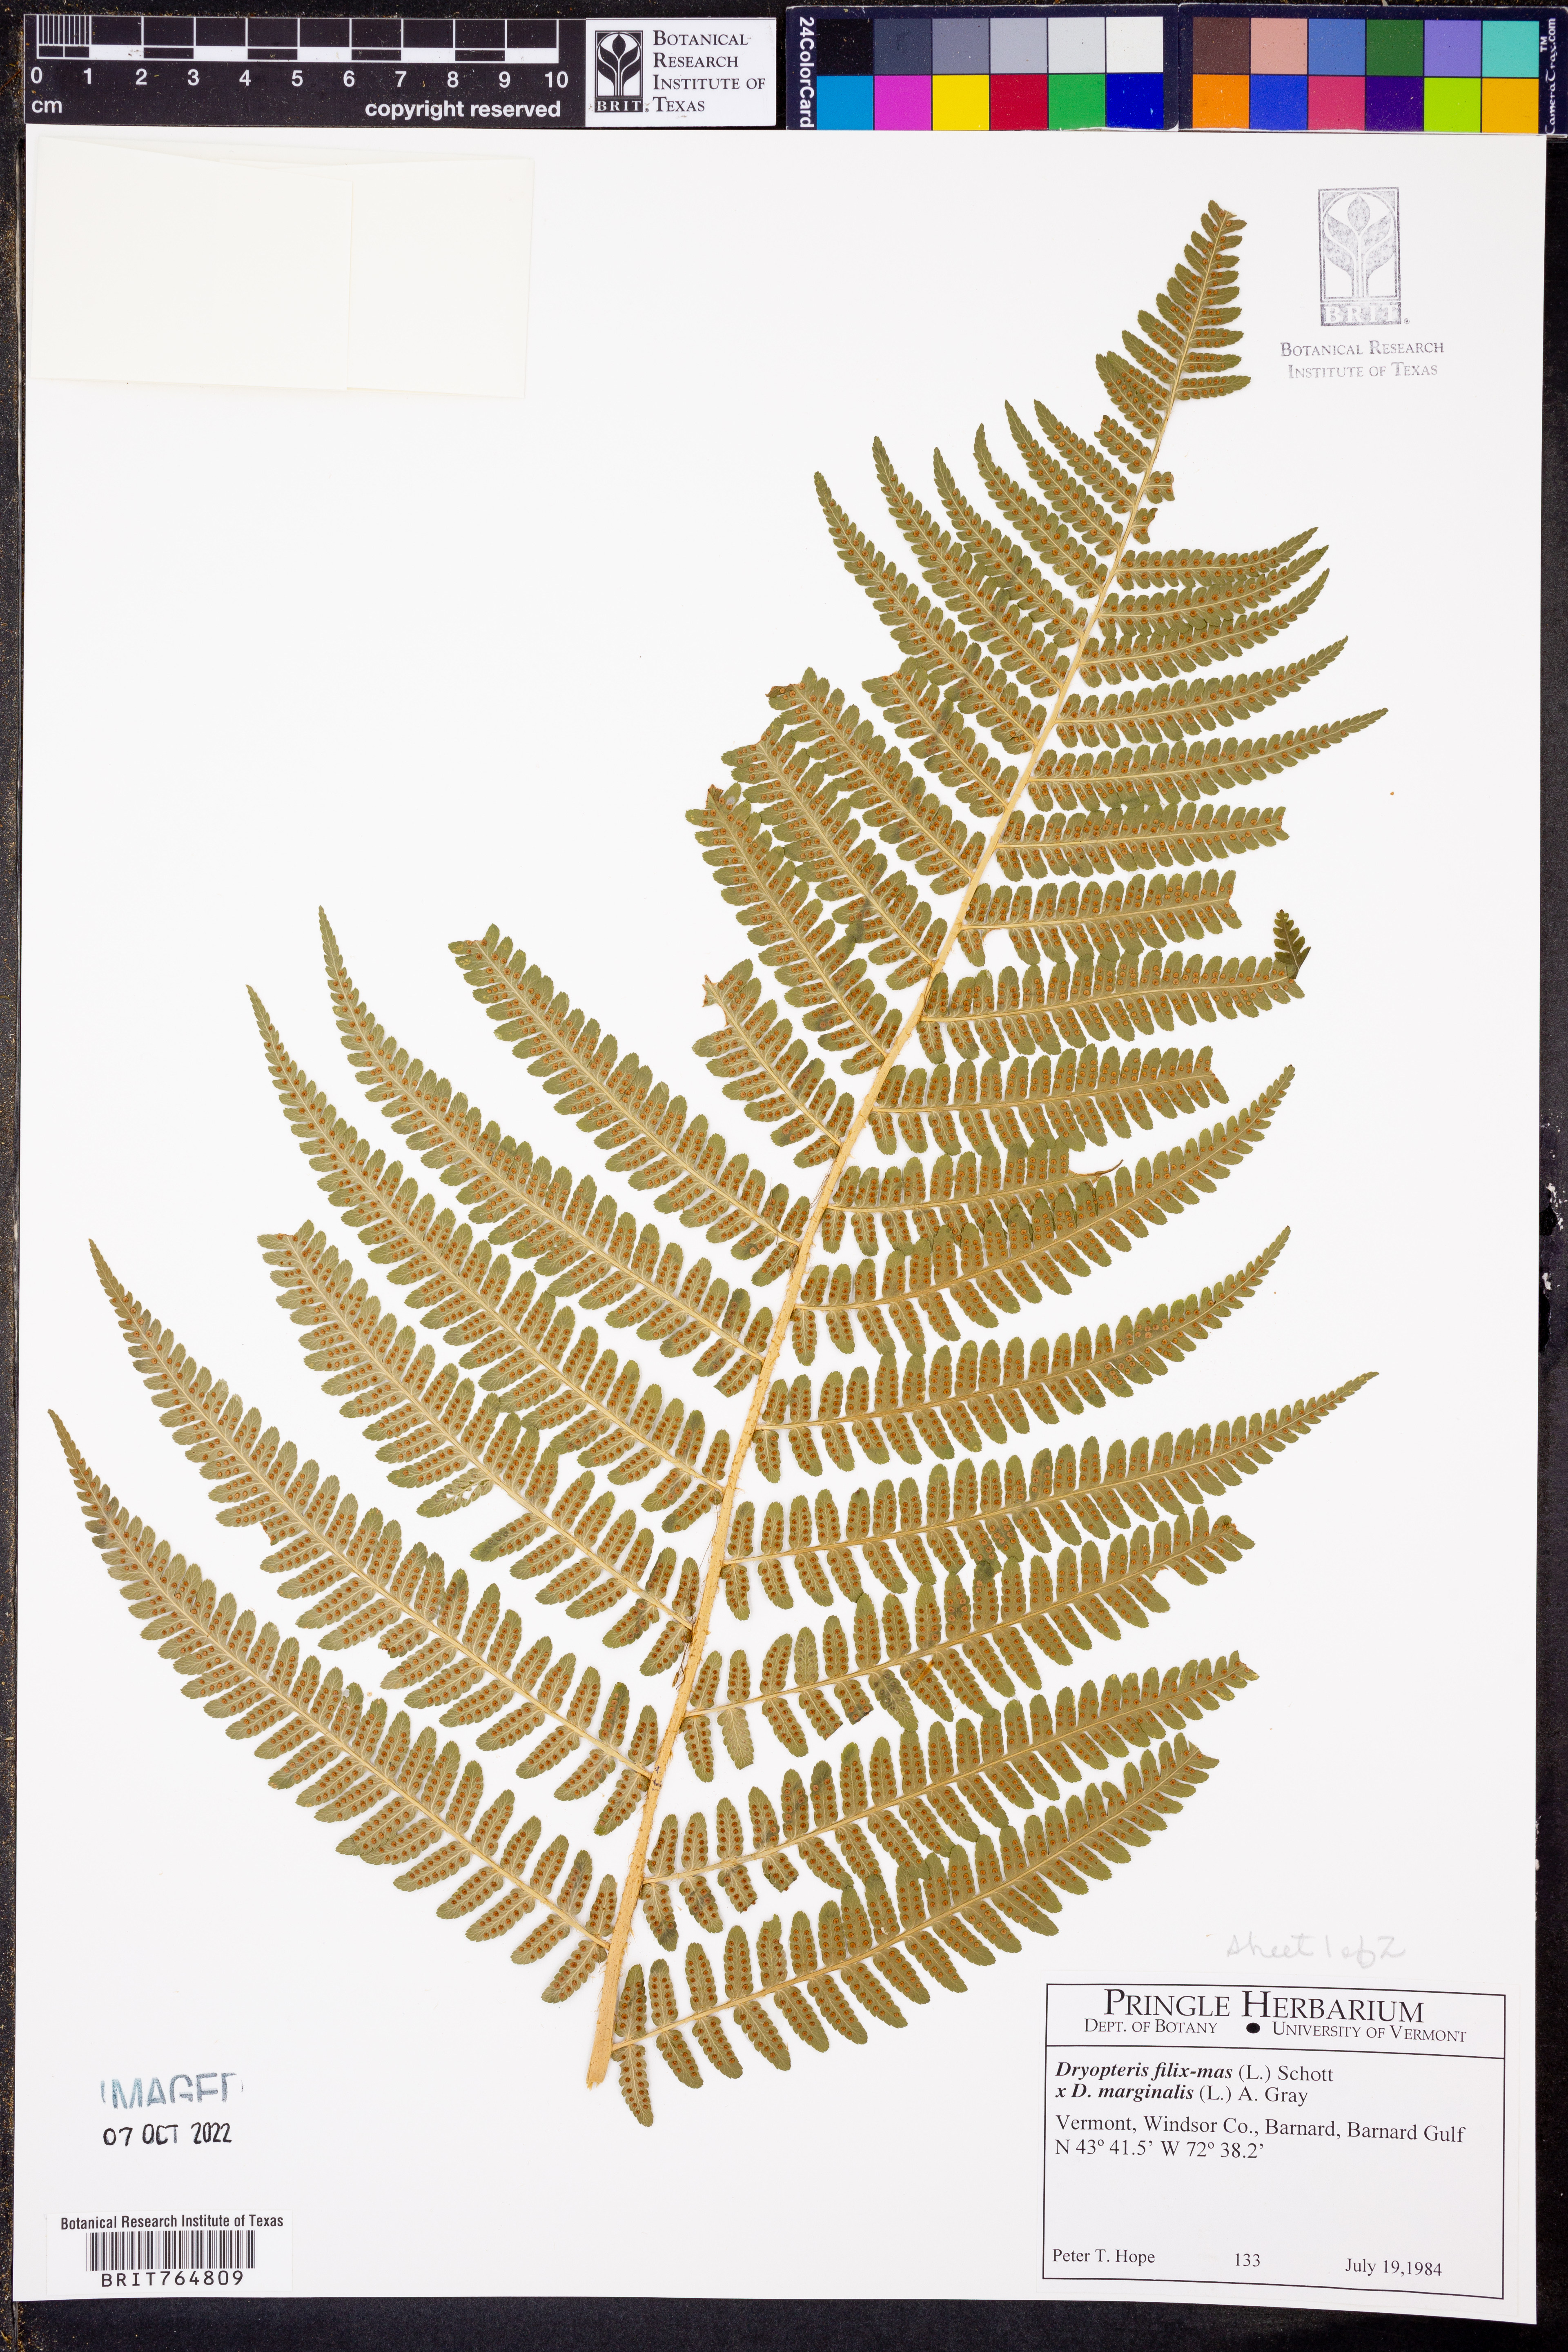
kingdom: Plantae
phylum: Tracheophyta
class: Polypodiopsida
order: Polypodiales
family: Dryopteridaceae
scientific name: Dryopteridaceae
